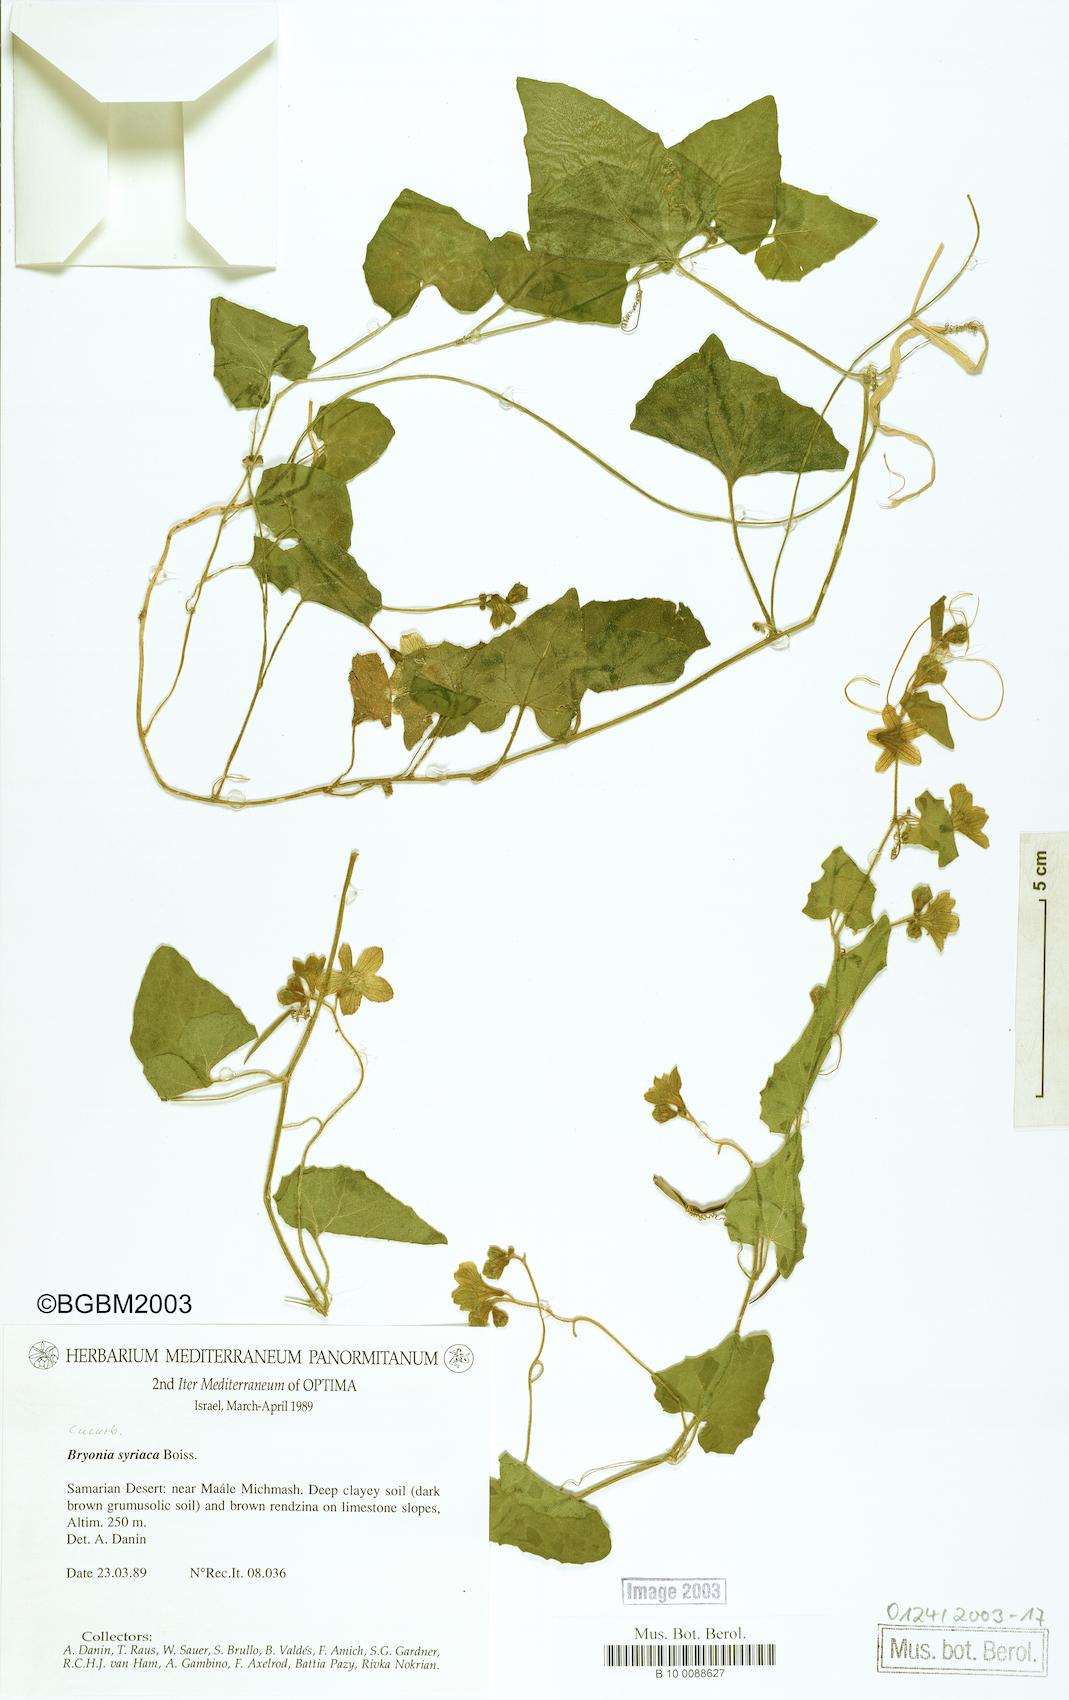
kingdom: Plantae
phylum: Tracheophyta
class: Magnoliopsida
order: Cucurbitales
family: Cucurbitaceae
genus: Bryonia
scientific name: Bryonia syriaca
